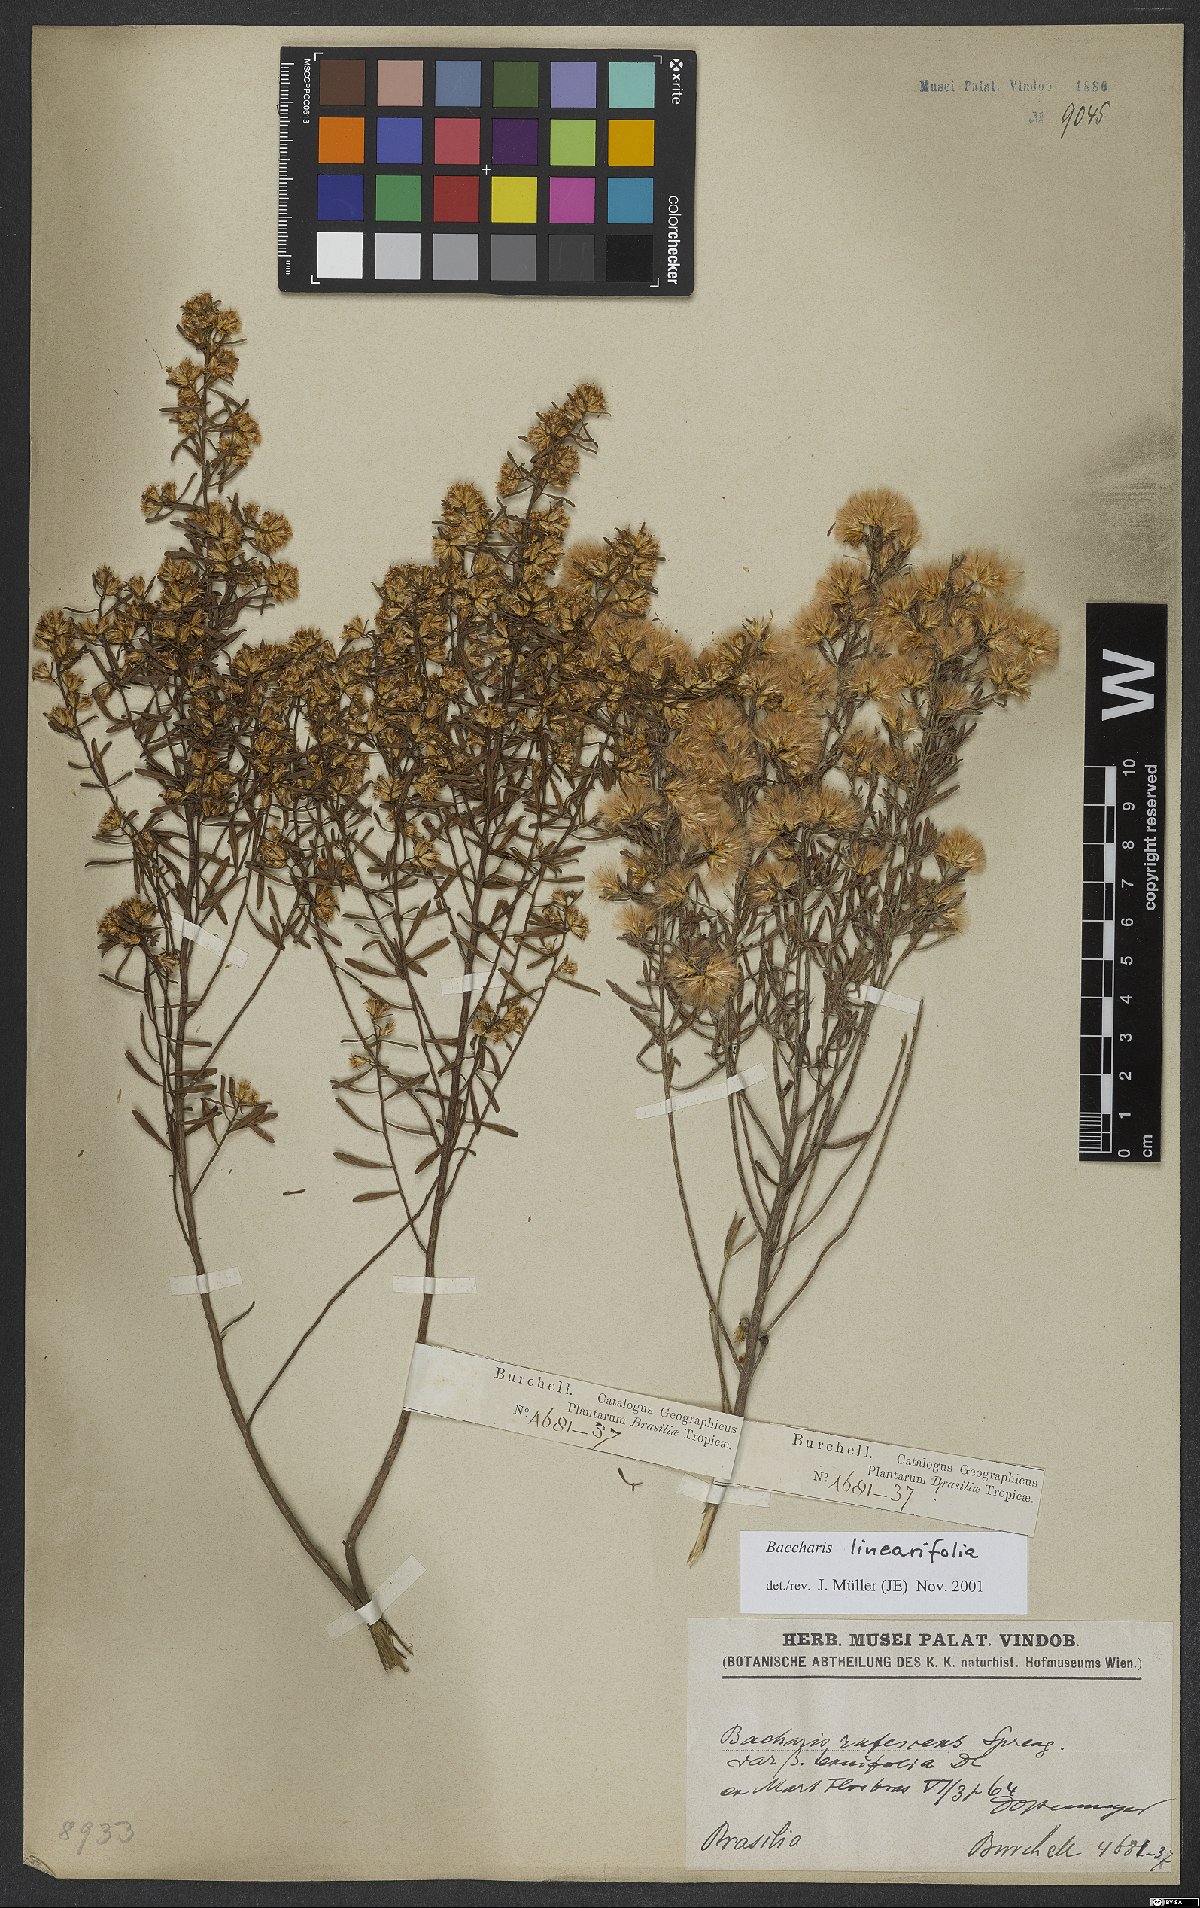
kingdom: Plantae
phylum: Tracheophyta
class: Magnoliopsida
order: Asterales
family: Asteraceae
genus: Baccharis
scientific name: Baccharis linearifolia
